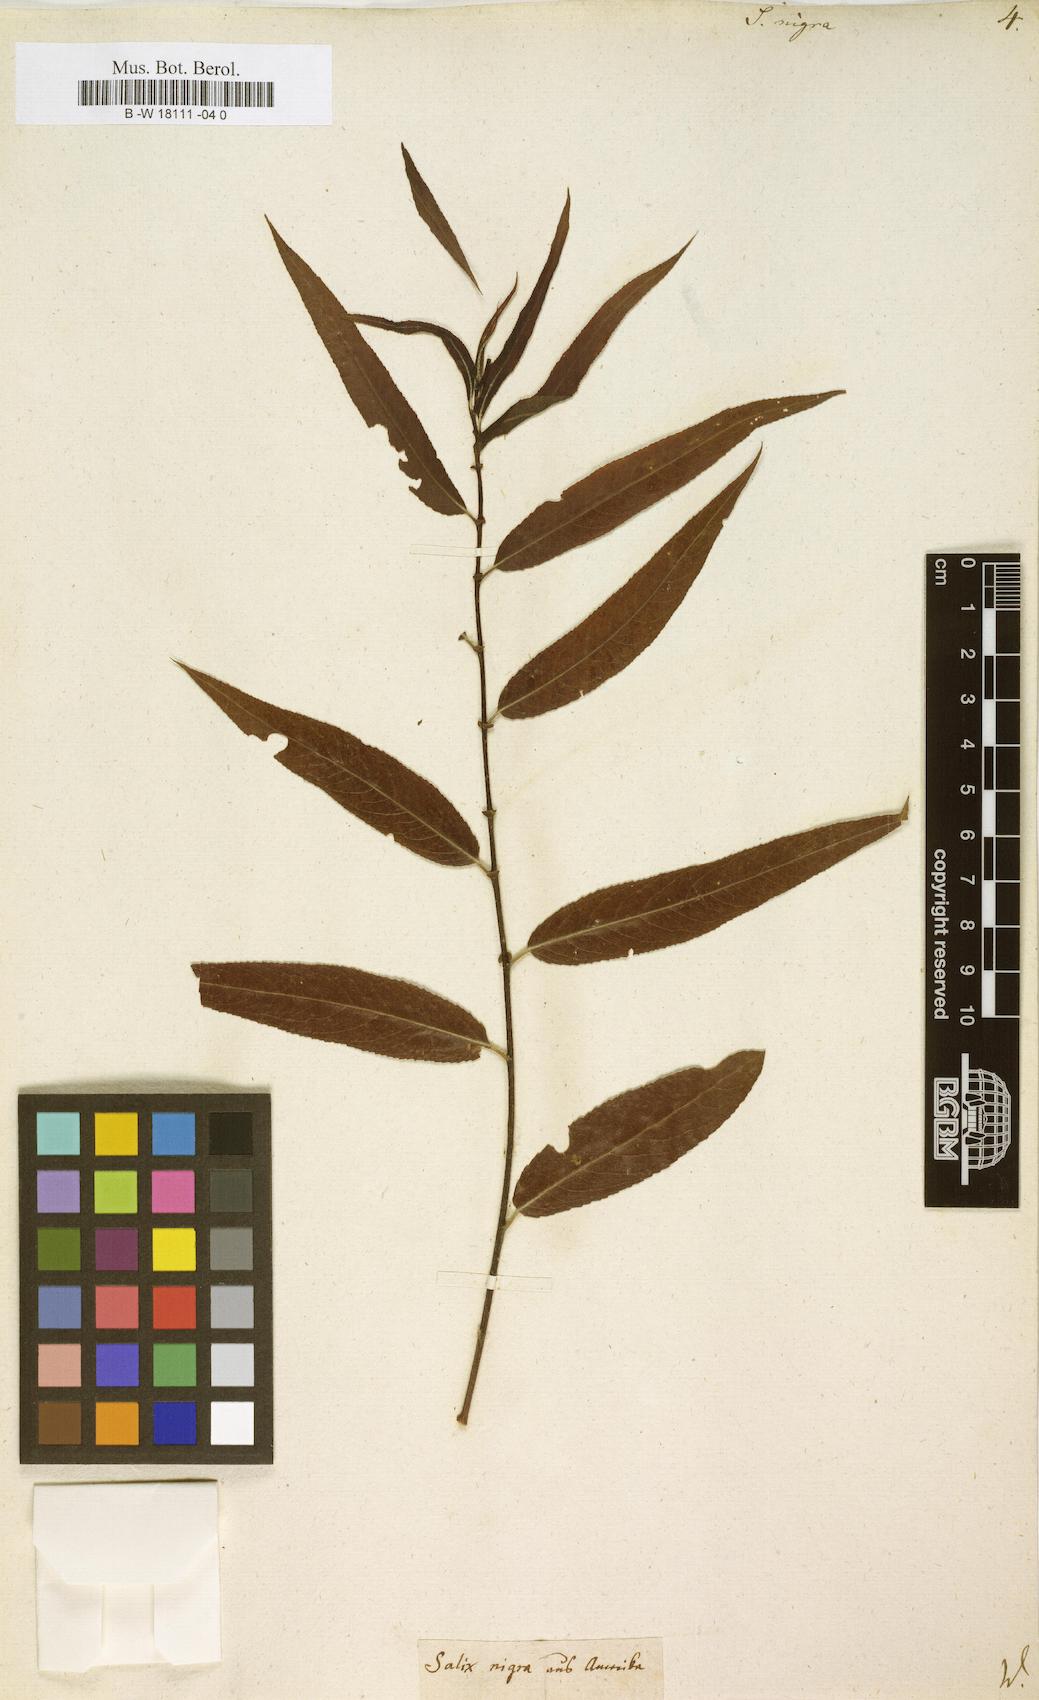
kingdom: Plantae
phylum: Tracheophyta
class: Magnoliopsida
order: Malpighiales
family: Salicaceae
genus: Salix
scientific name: Salix nigra
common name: Black willow
